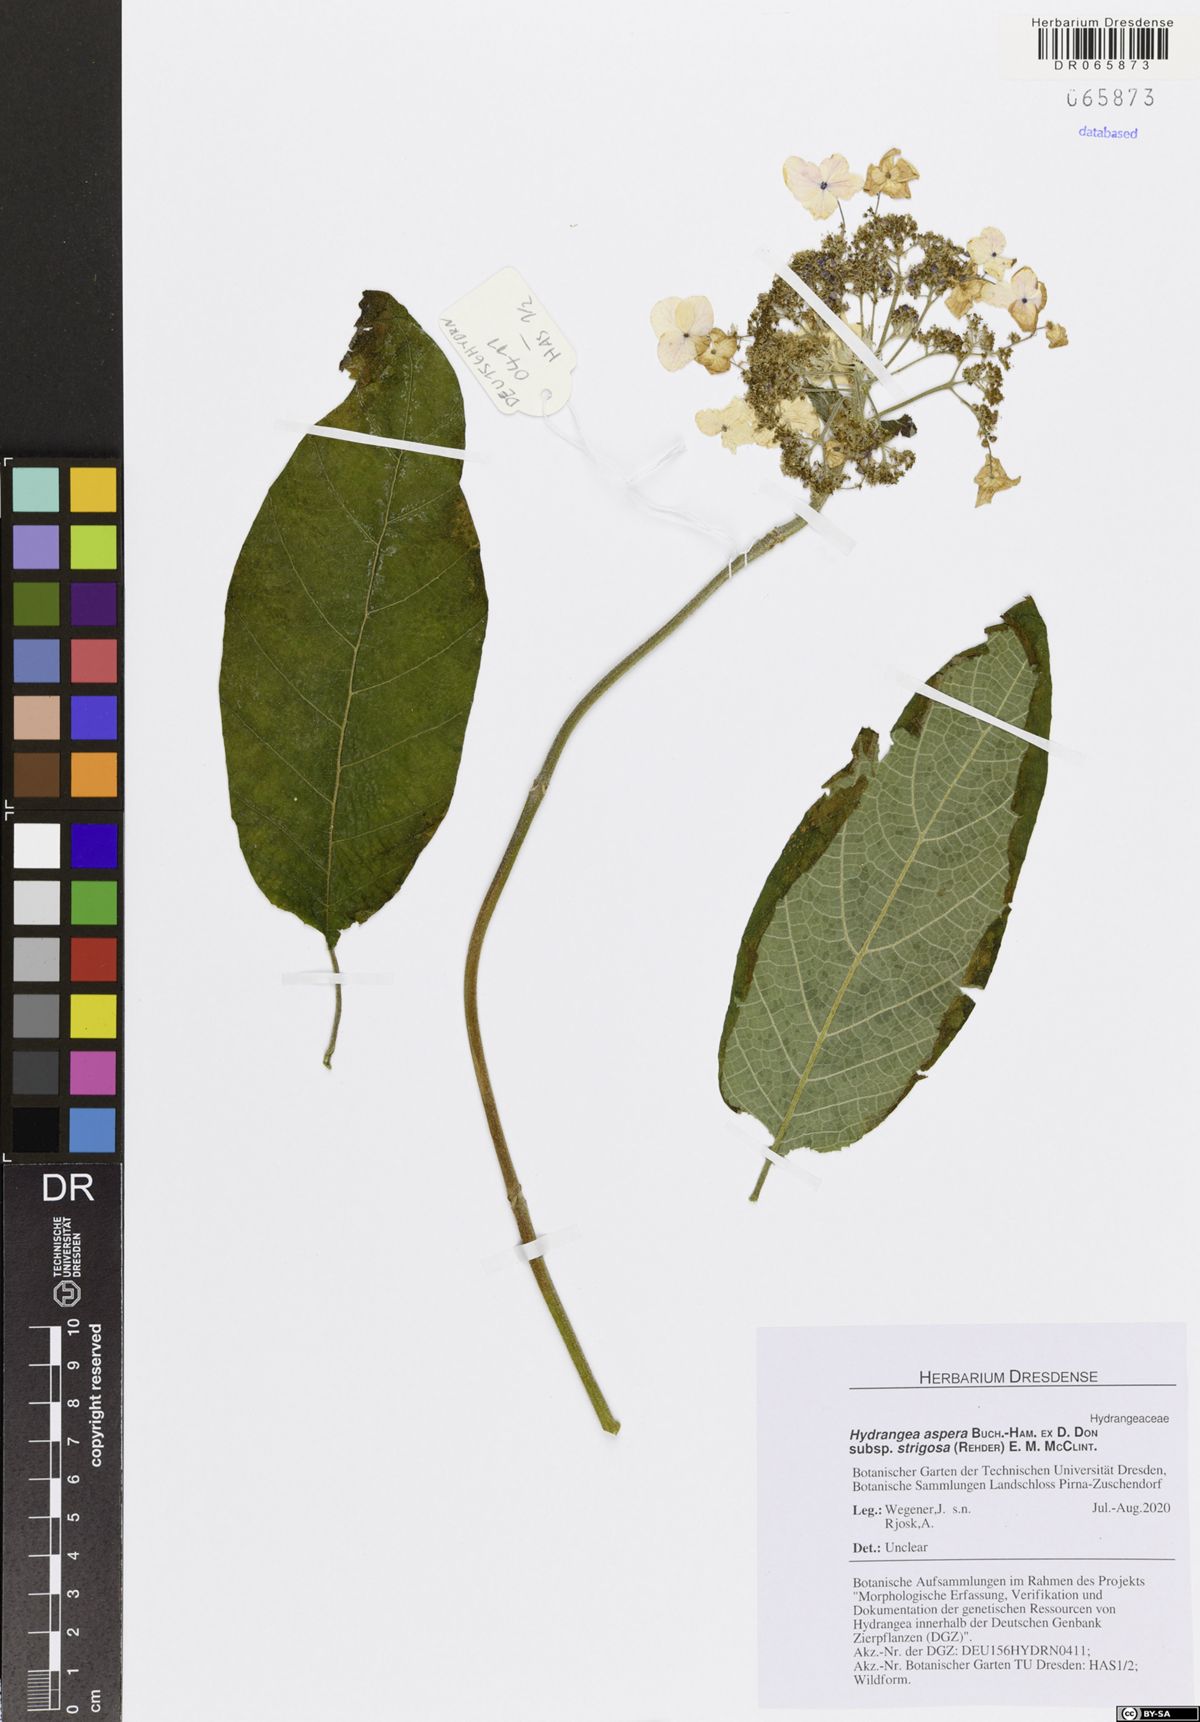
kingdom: Plantae
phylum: Tracheophyta
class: Magnoliopsida
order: Cornales
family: Hydrangeaceae
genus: Hydrangea
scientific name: Hydrangea strigosa
